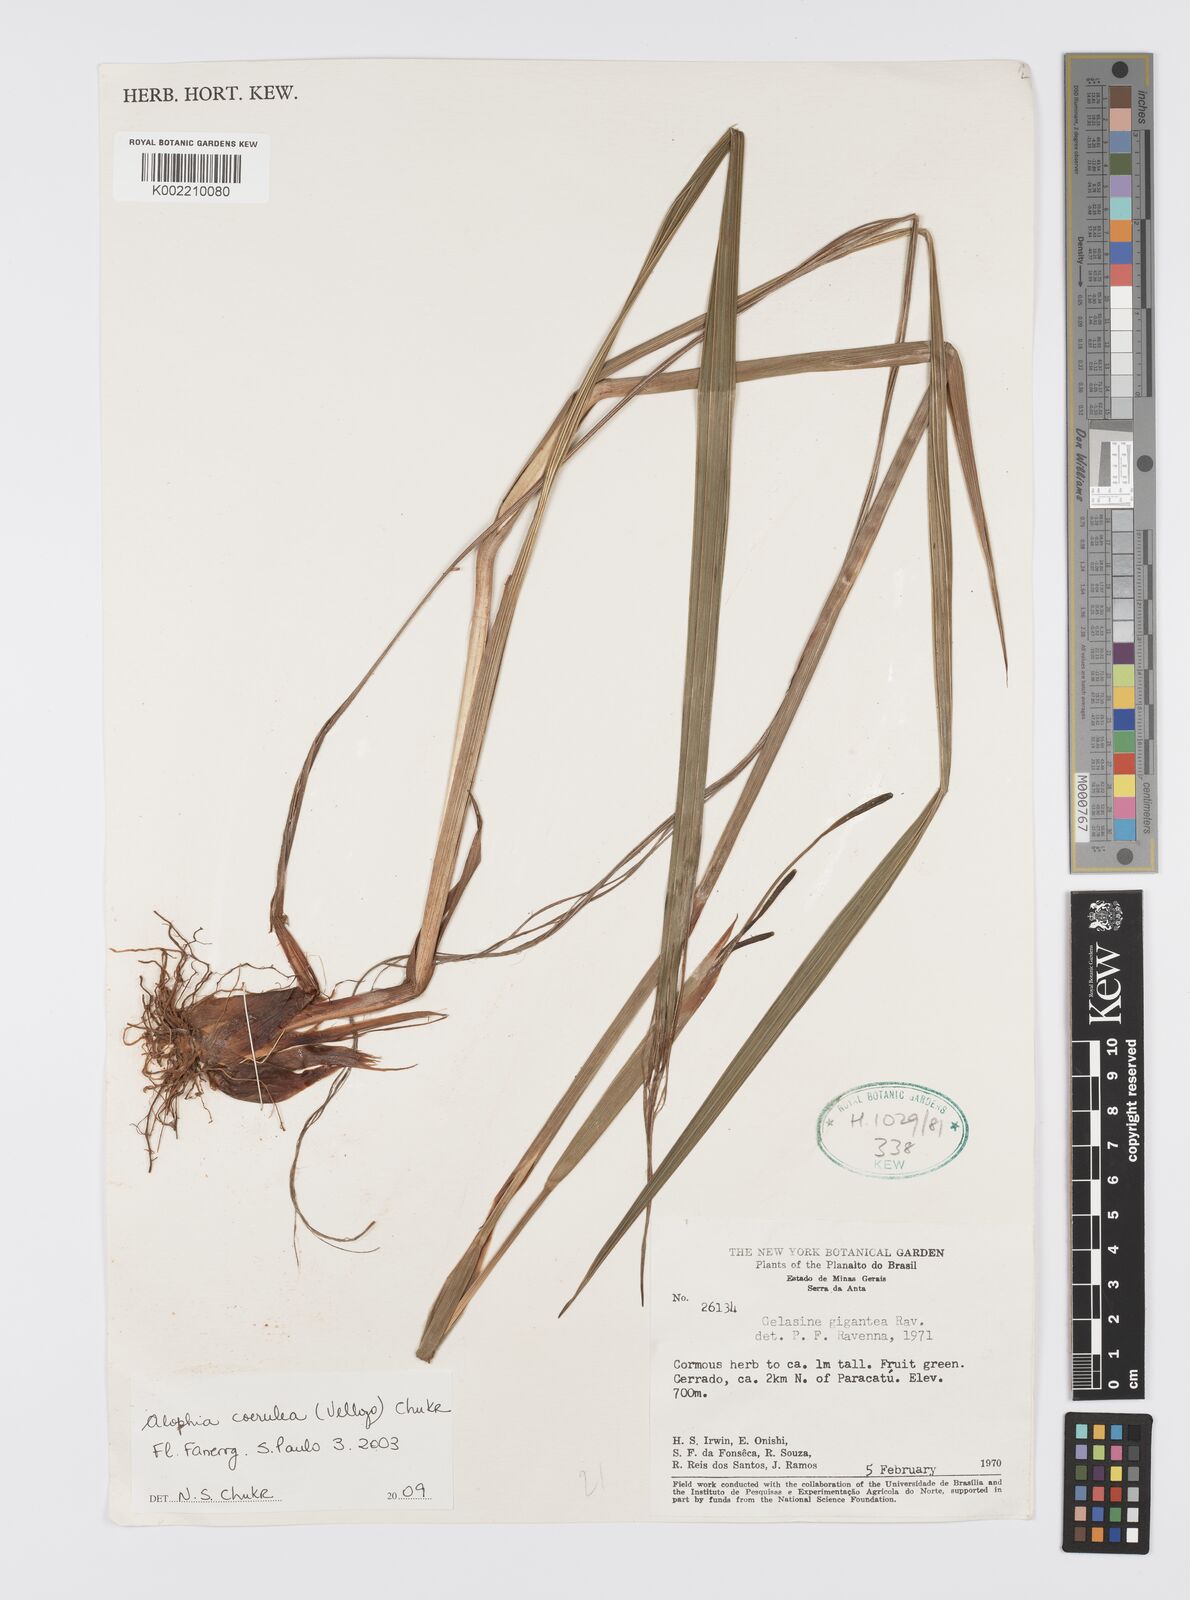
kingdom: Plantae
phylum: Tracheophyta
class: Liliopsida
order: Asparagales
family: Iridaceae
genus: Gelasine
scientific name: Gelasine coerulea
